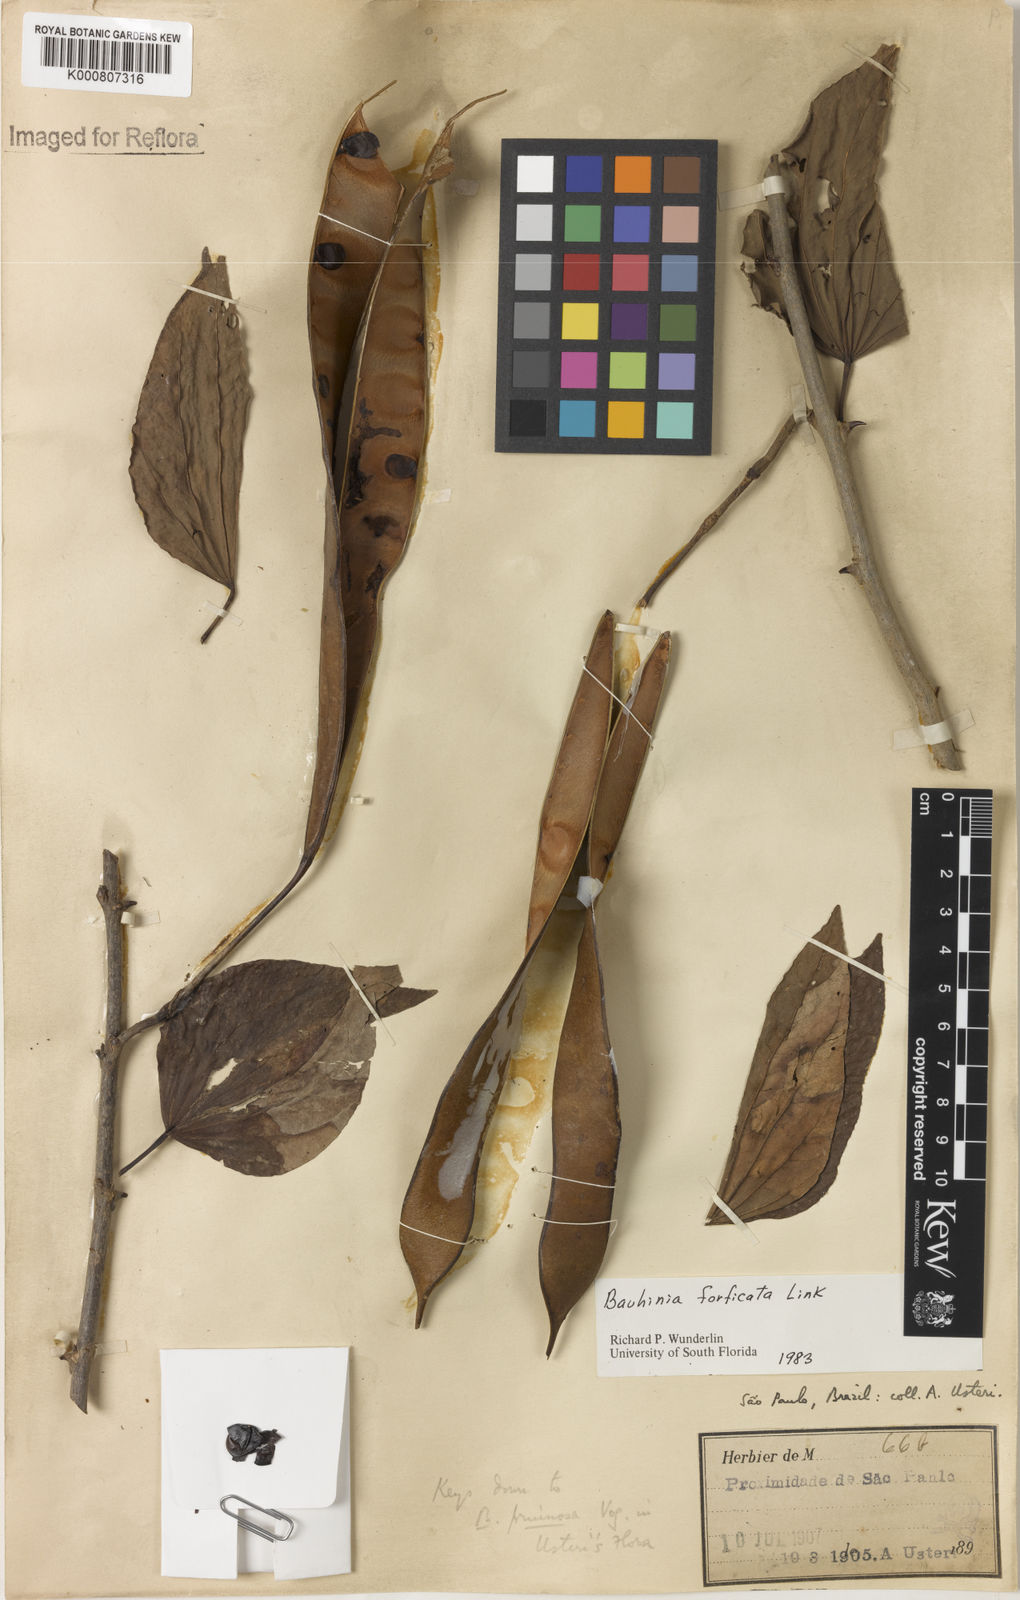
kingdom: Plantae
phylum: Tracheophyta
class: Magnoliopsida
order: Fabales
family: Fabaceae
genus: Bauhinia
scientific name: Bauhinia forficata
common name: Orchid tree
